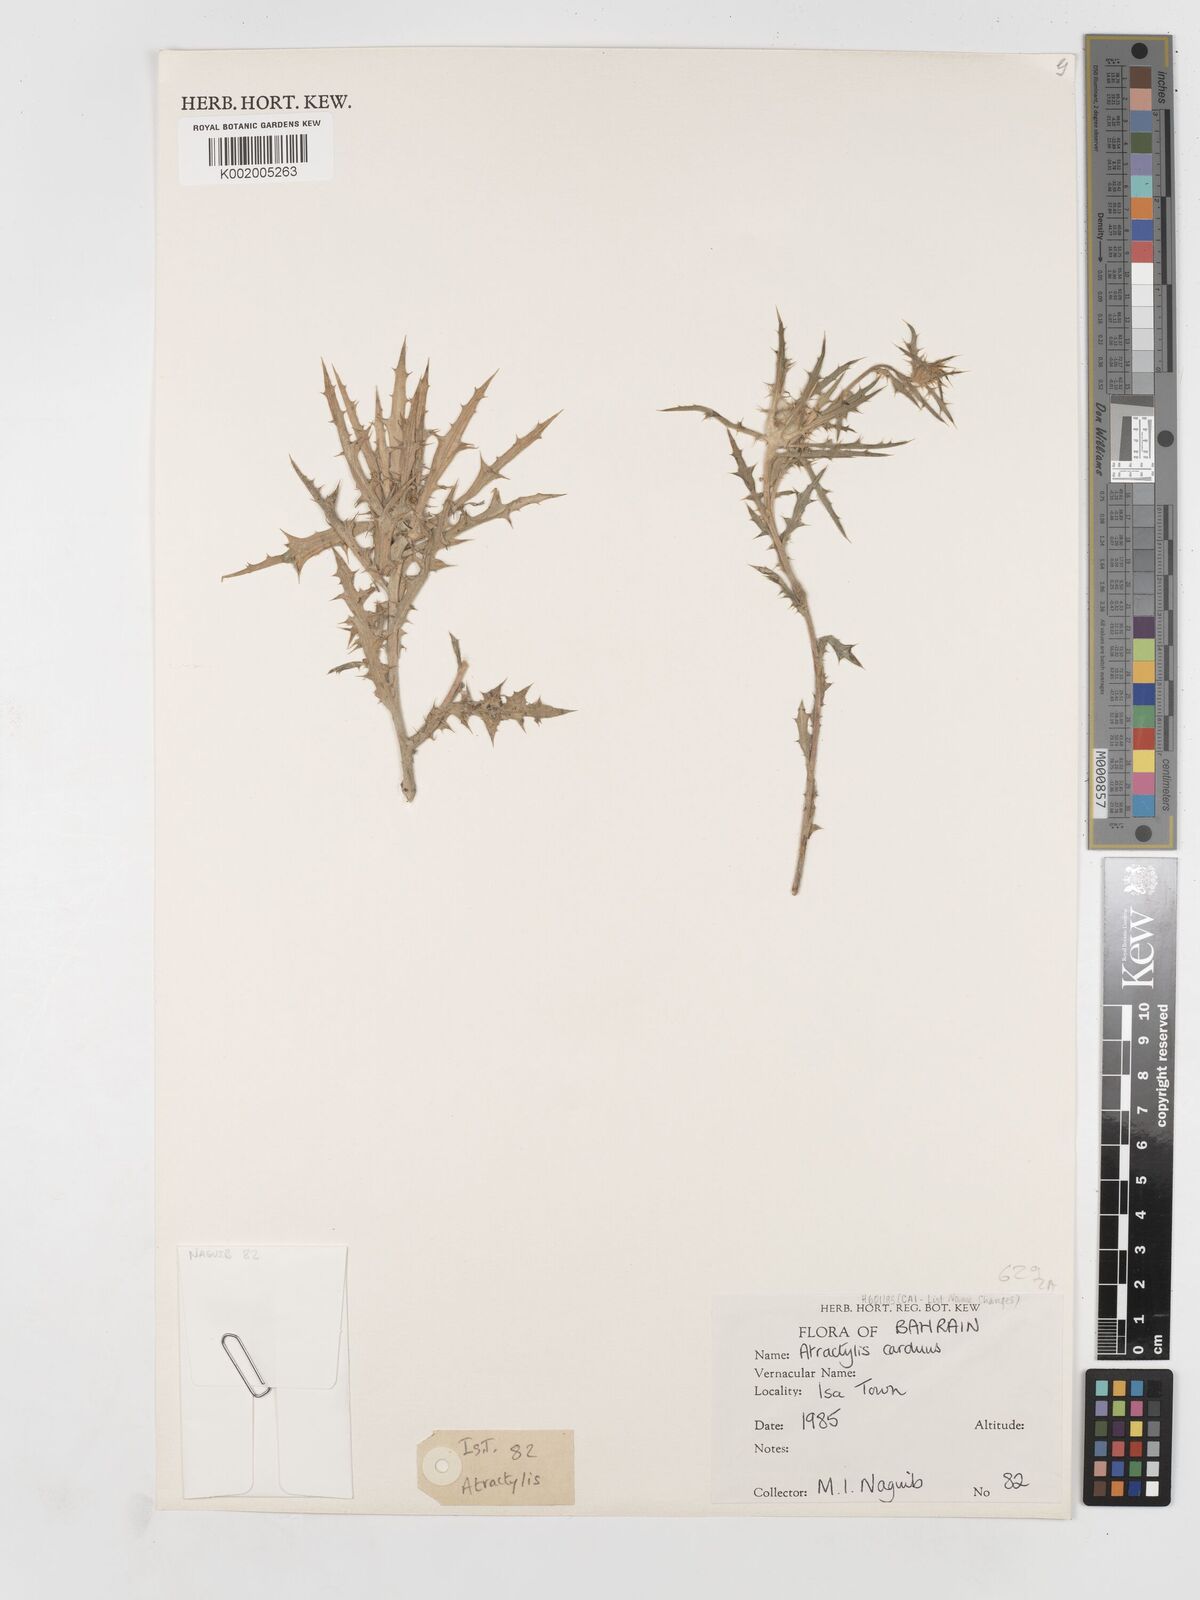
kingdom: Plantae
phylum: Tracheophyta
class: Magnoliopsida
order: Asterales
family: Asteraceae
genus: Atractylis
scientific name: Atractylis carduus
